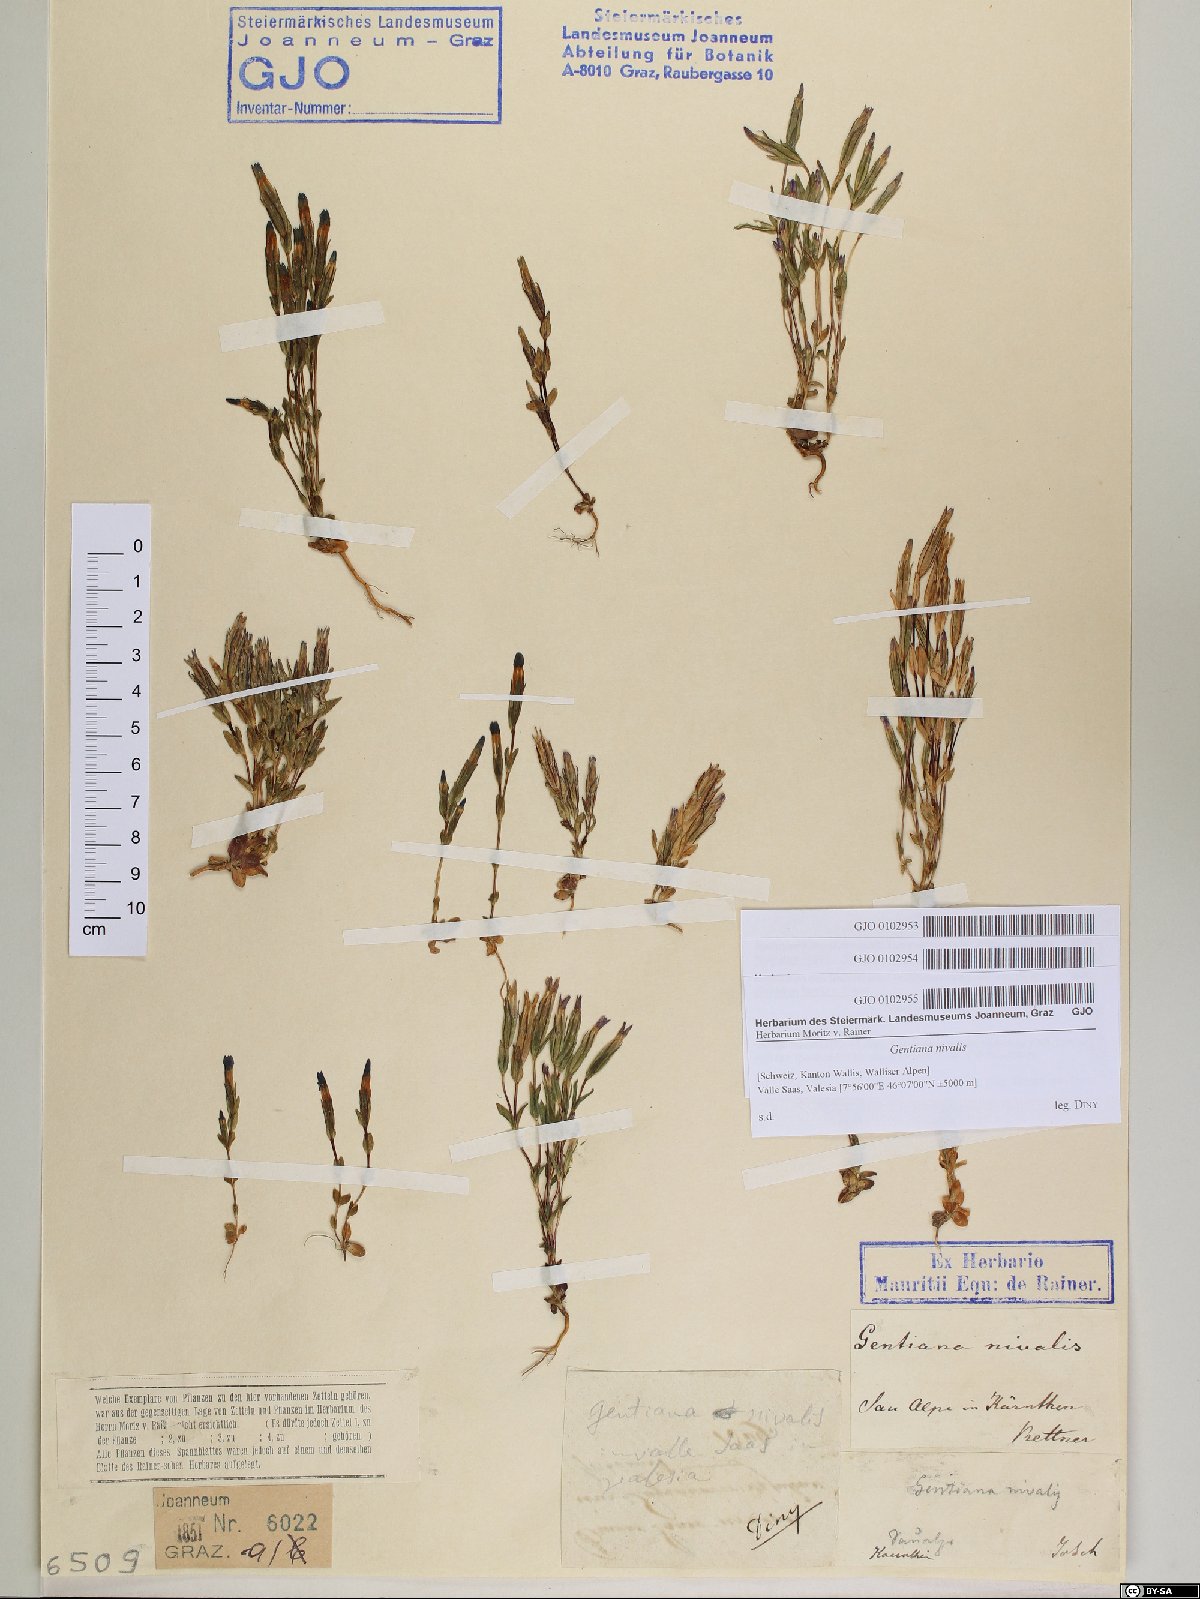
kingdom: Plantae
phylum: Tracheophyta
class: Magnoliopsida
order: Gentianales
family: Gentianaceae
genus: Gentiana
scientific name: Gentiana nivalis
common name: Alpine gentian
